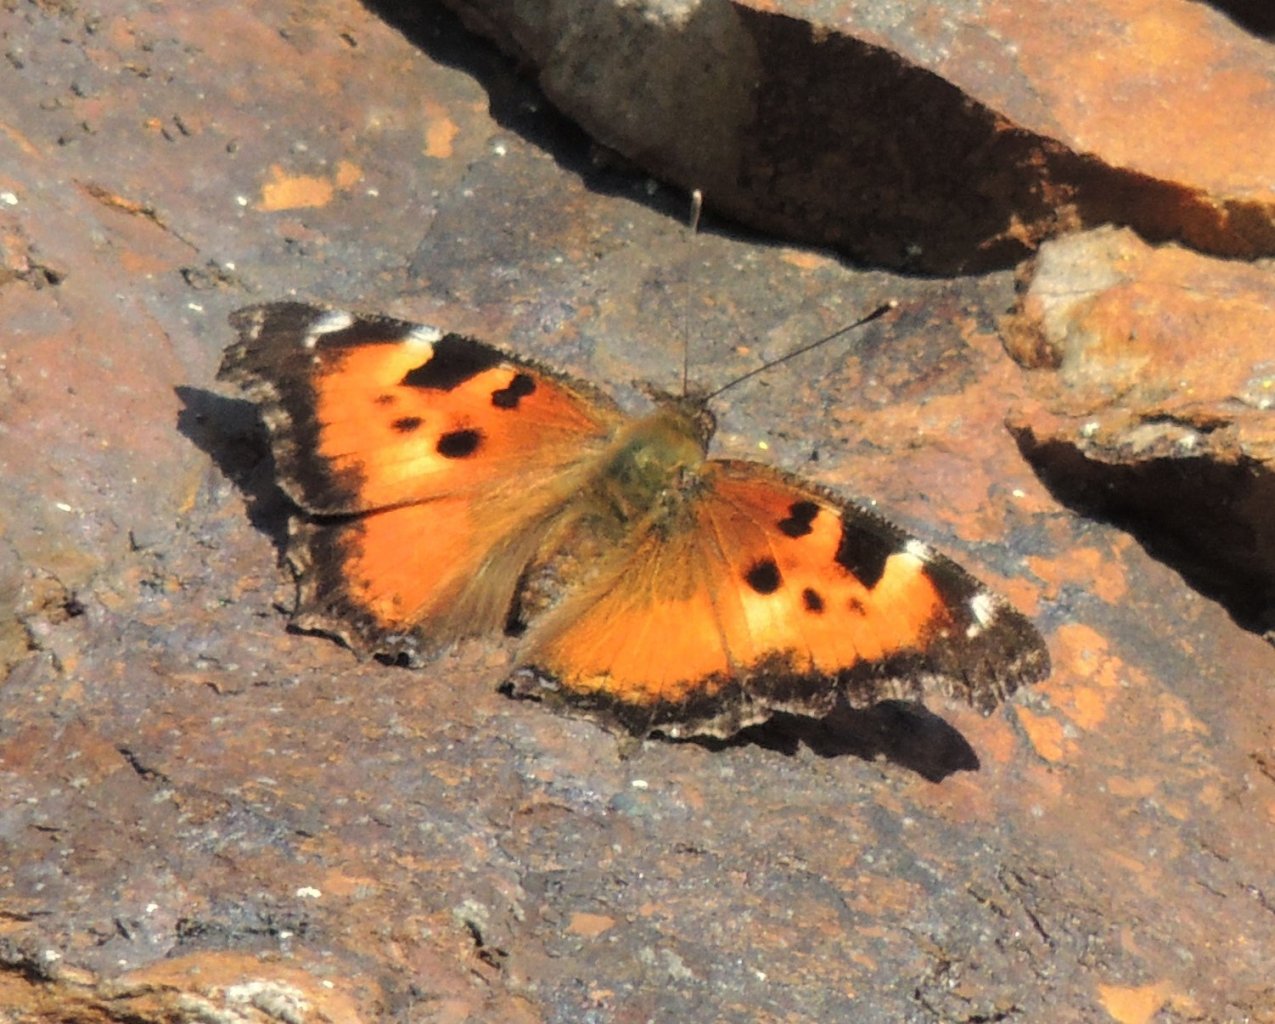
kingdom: Animalia
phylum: Arthropoda
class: Insecta
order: Lepidoptera
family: Nymphalidae
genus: Nymphalis
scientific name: Nymphalis californica
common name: California Tortoiseshell
